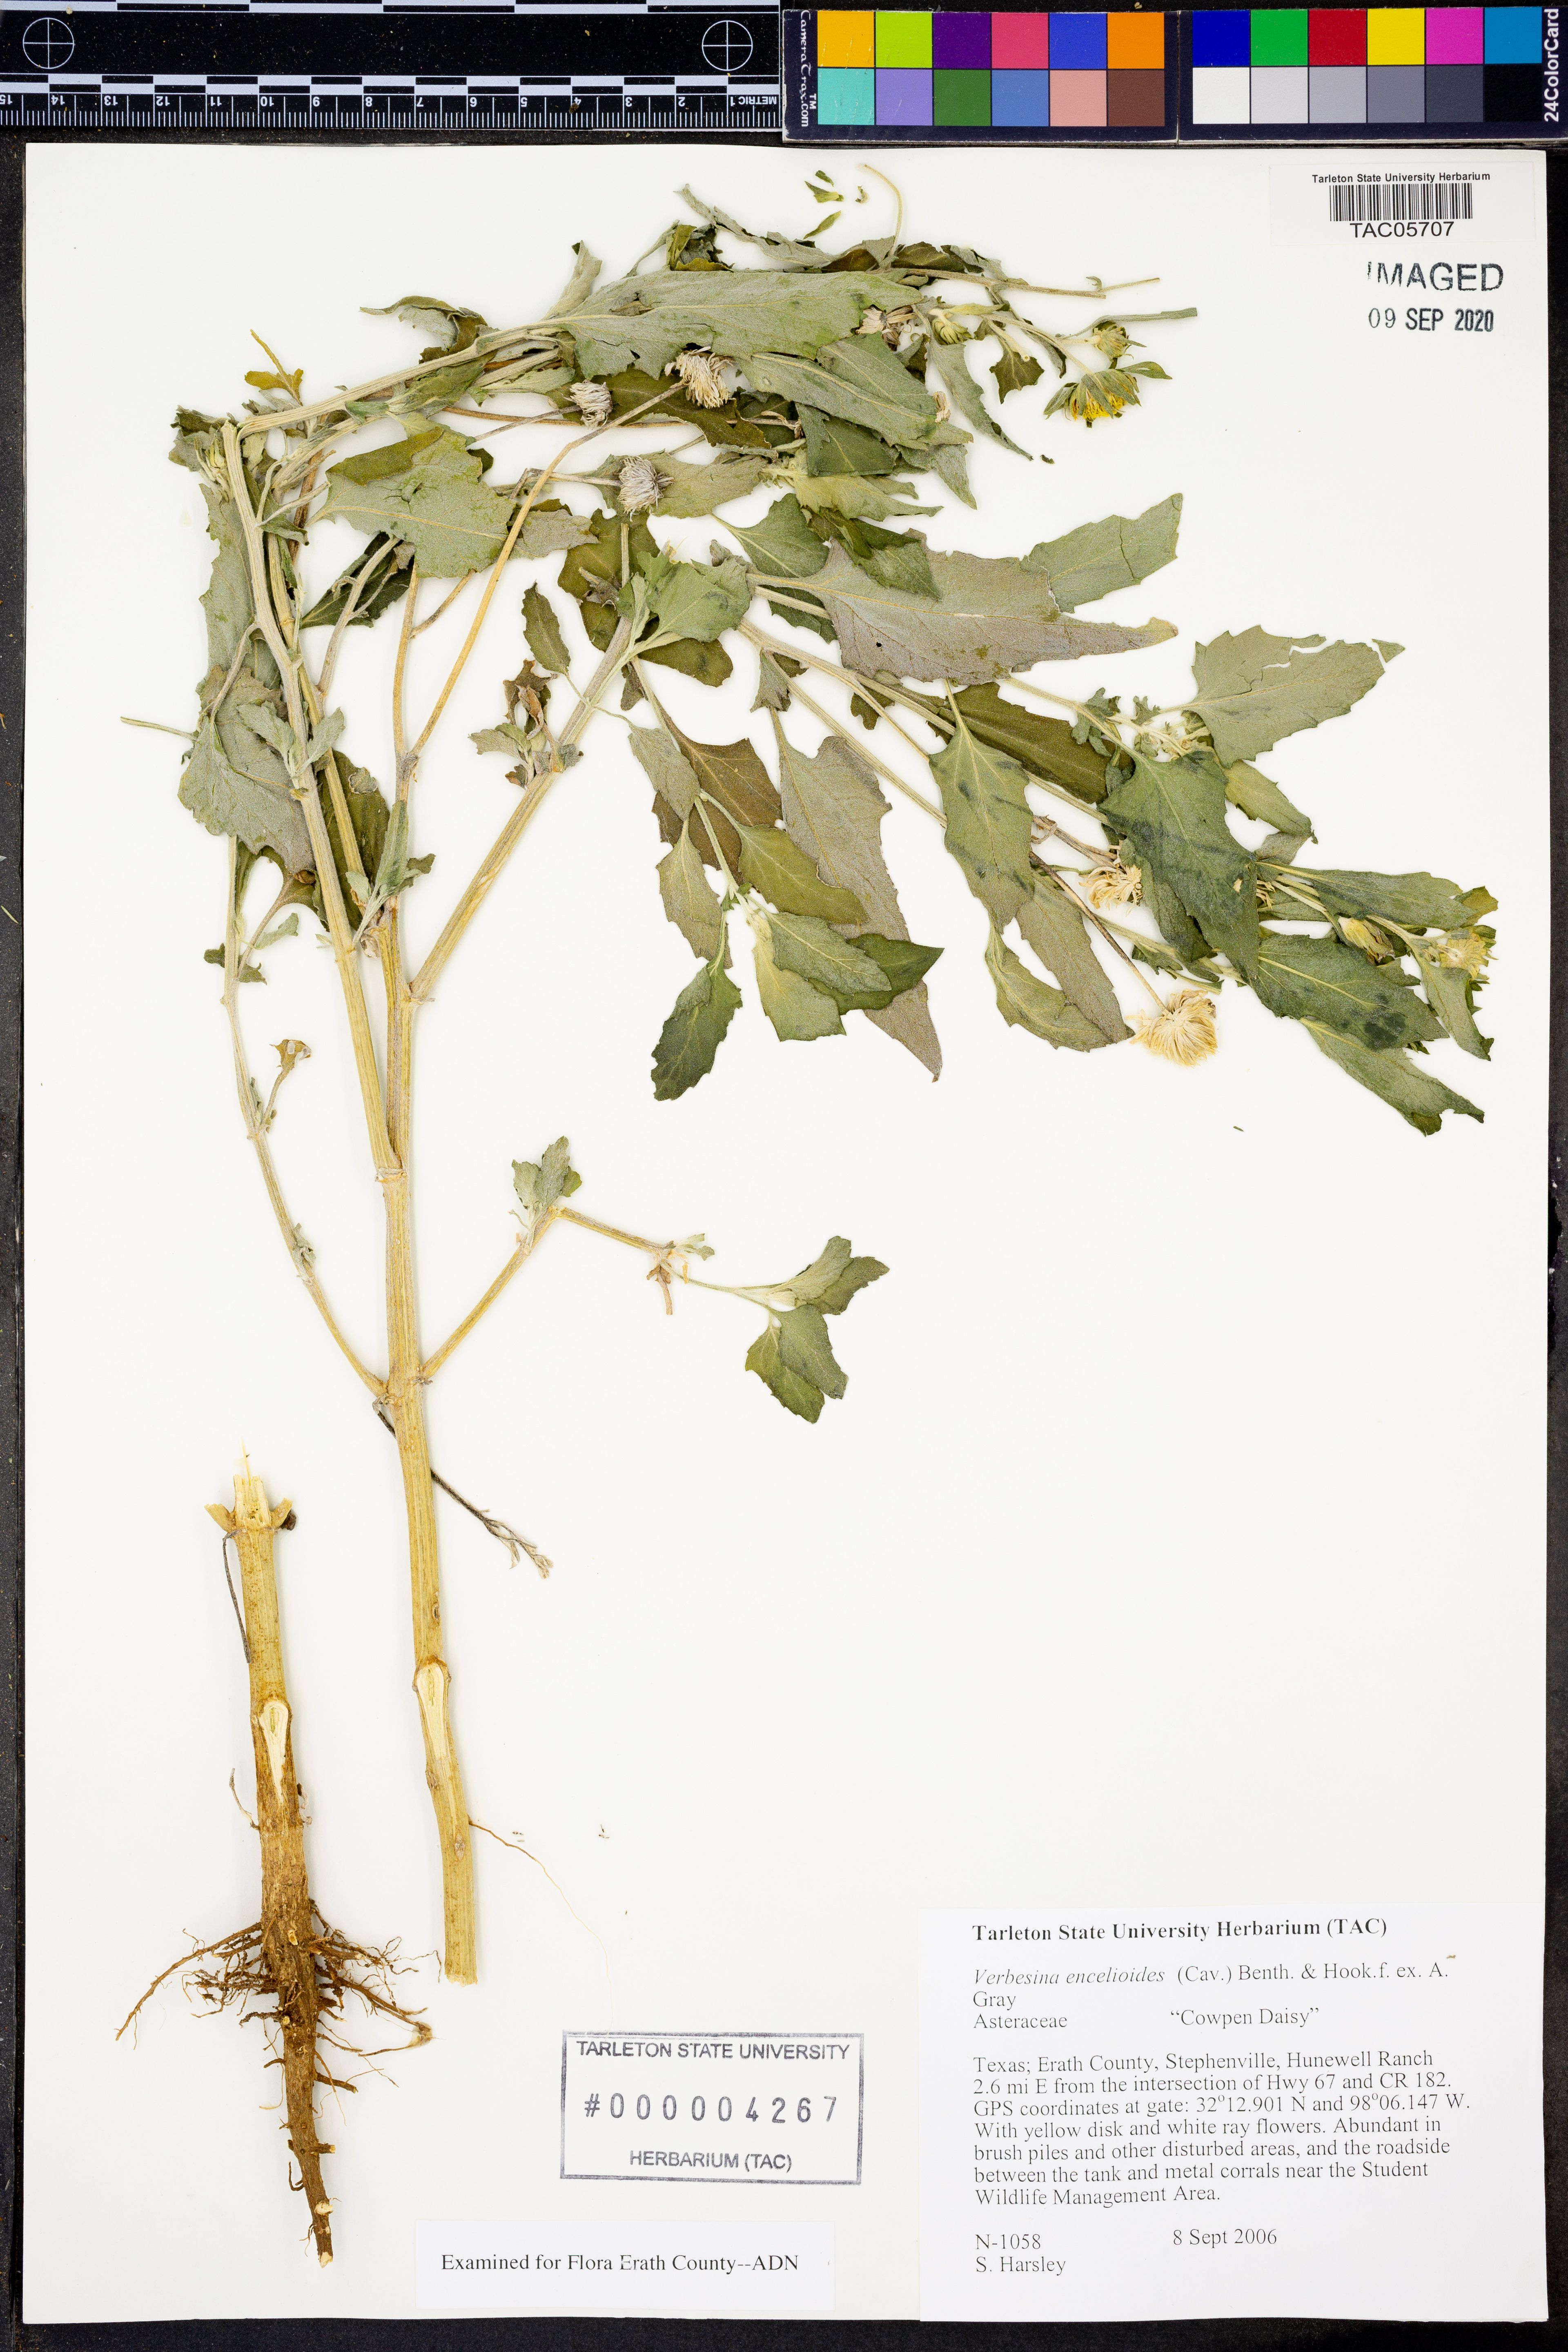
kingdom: Plantae
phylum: Tracheophyta
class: Magnoliopsida
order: Asterales
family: Asteraceae
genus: Verbesina
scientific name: Verbesina encelioides
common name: Golden crownbeard
